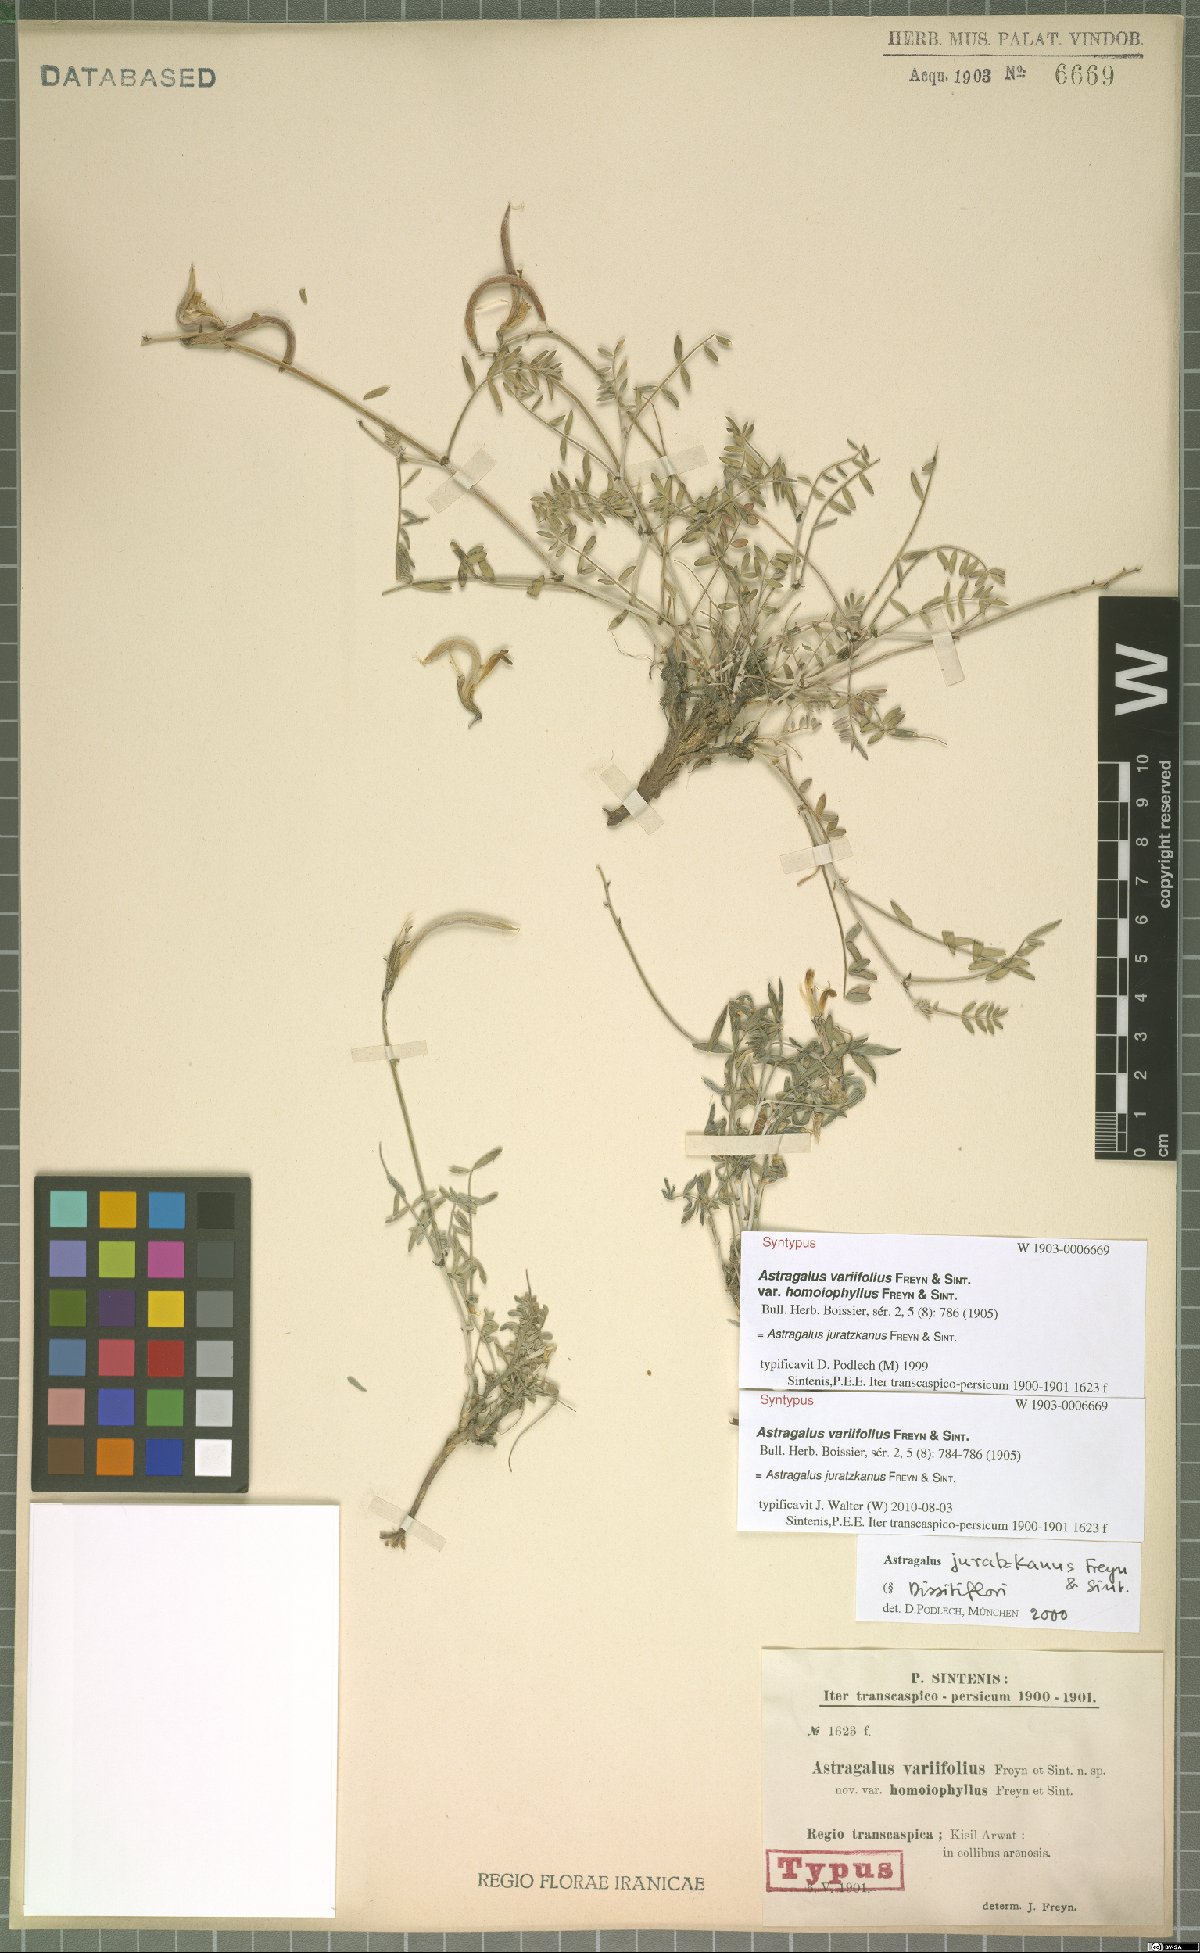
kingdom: Plantae
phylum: Tracheophyta
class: Magnoliopsida
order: Fabales
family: Fabaceae
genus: Astragalus
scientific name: Astragalus juratzkanus
